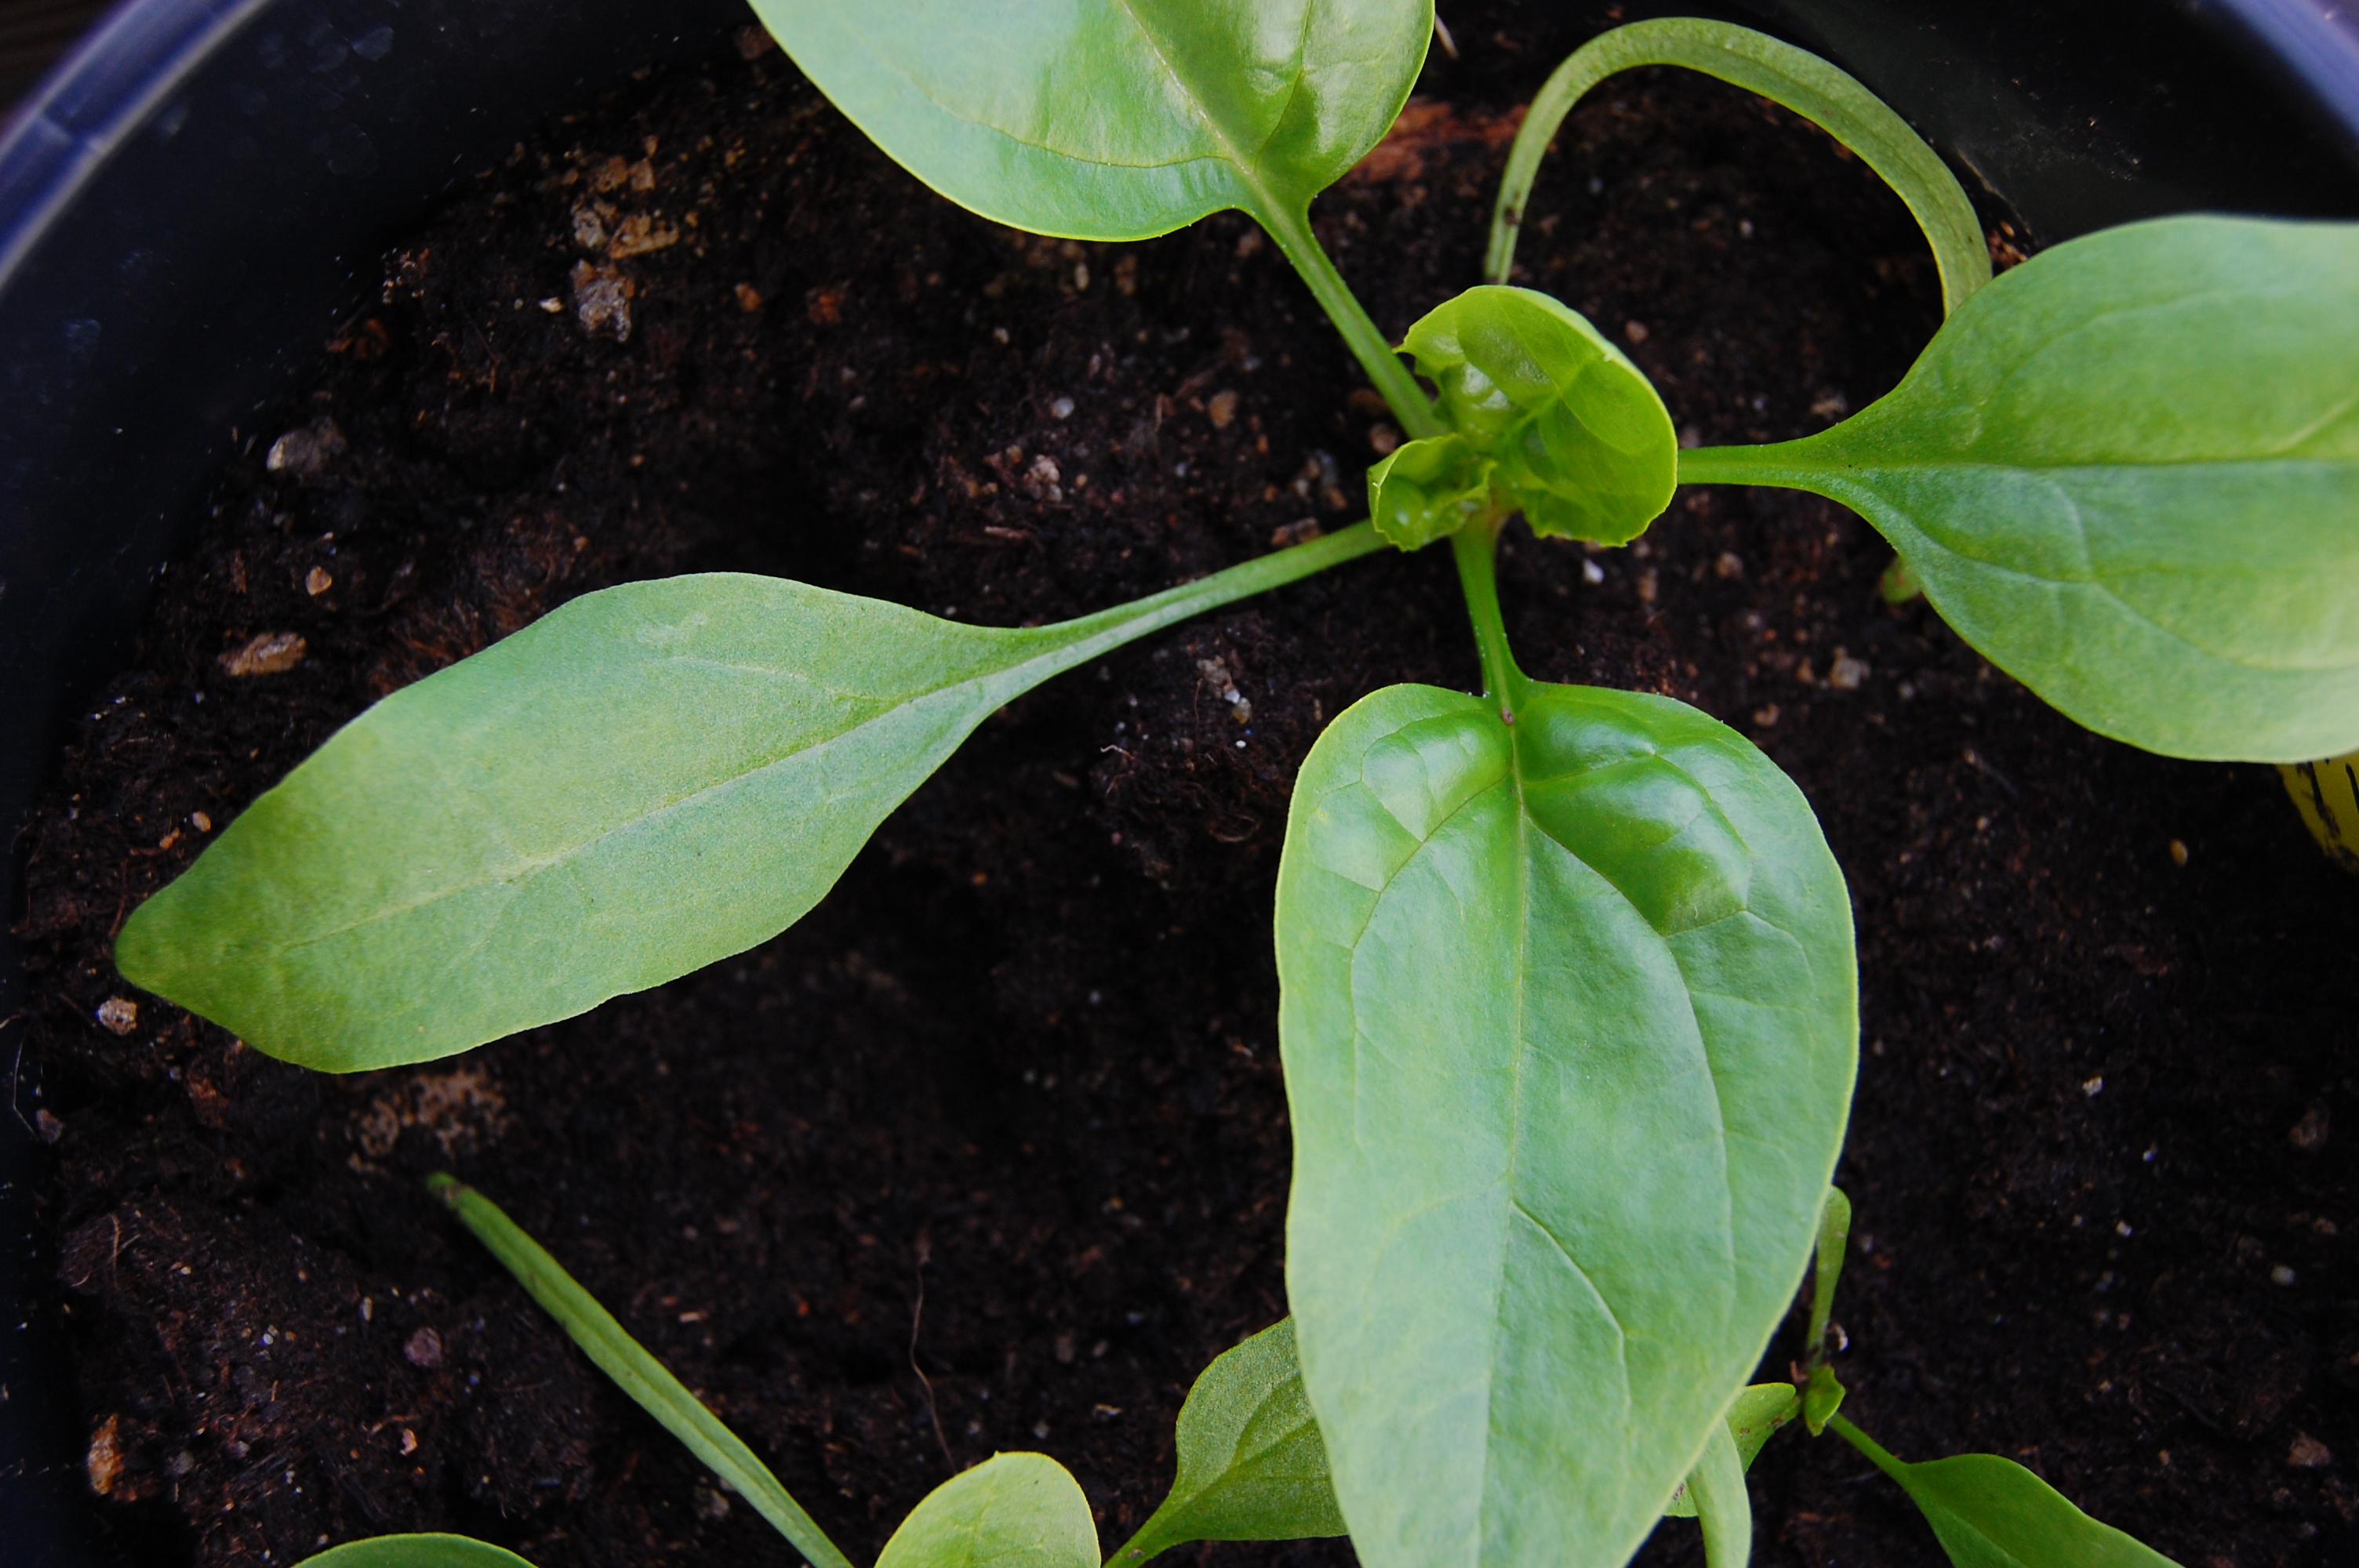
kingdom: Plantae
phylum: Tracheophyta
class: Magnoliopsida
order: Caryophyllales
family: Amaranthaceae
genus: Spinacia
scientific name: Spinacia oleracea
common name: Spinach
